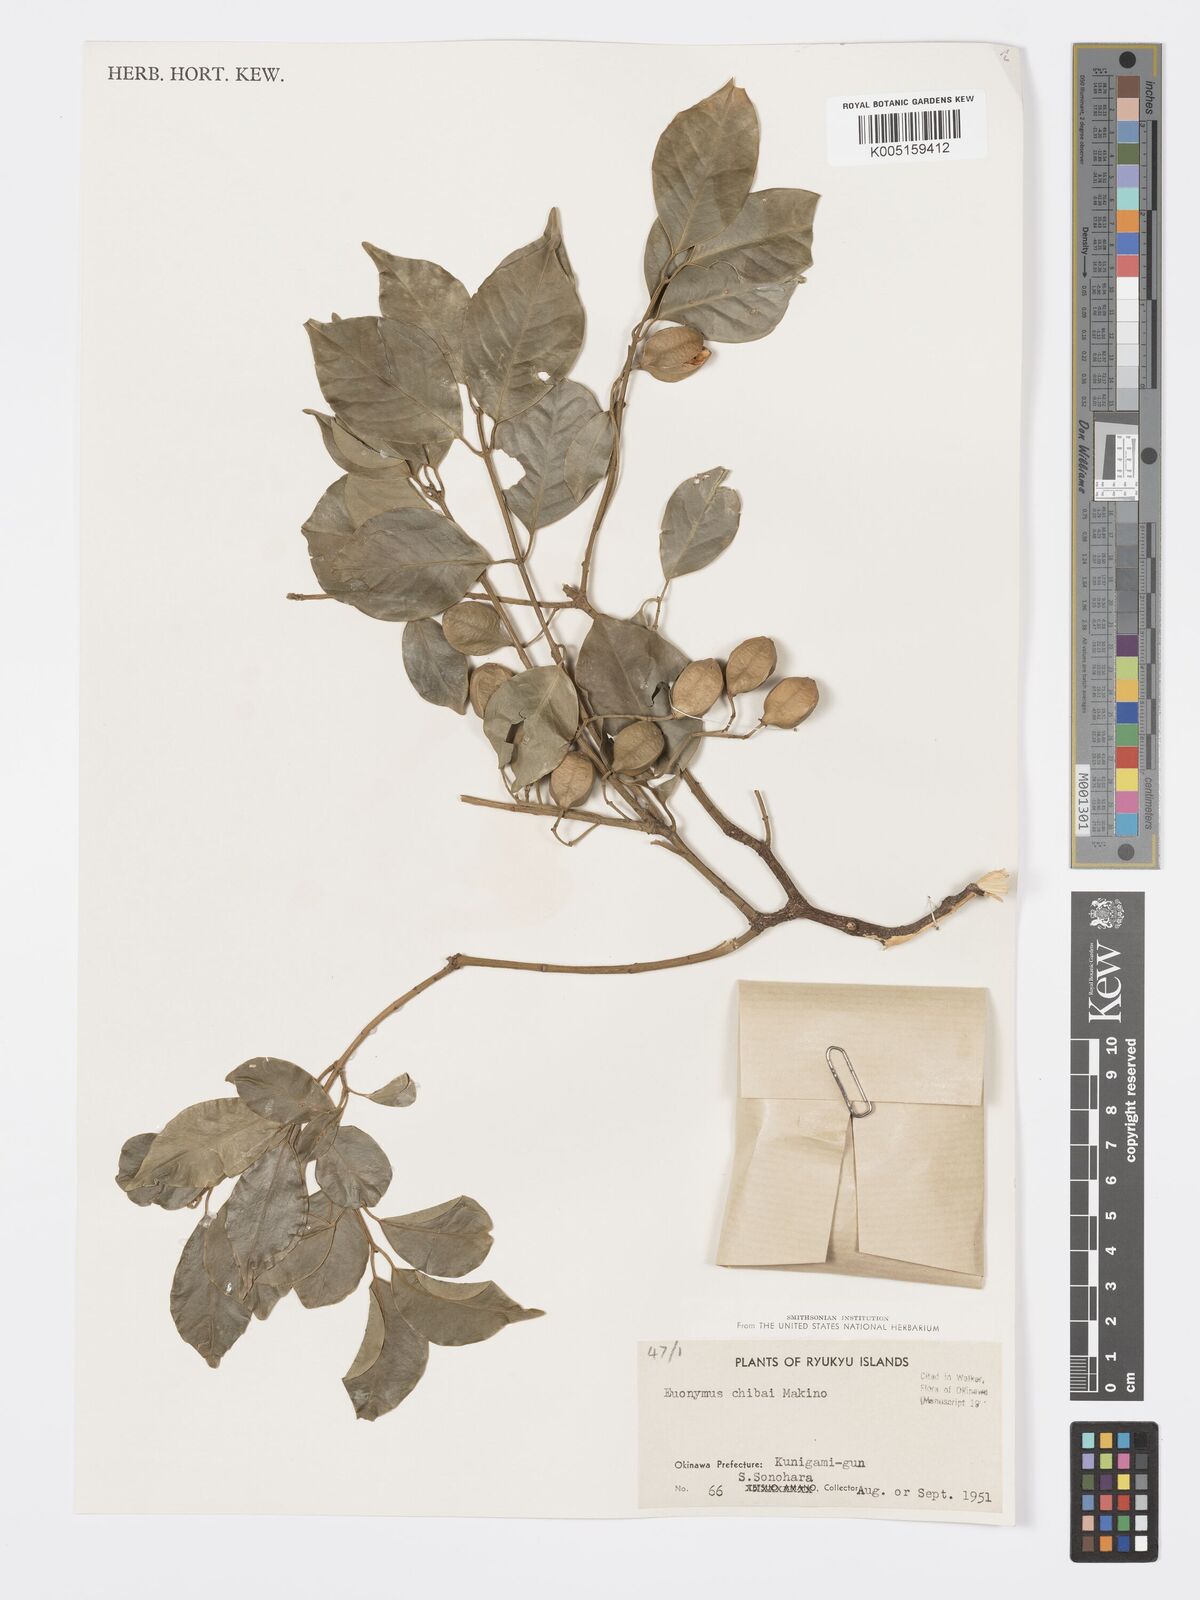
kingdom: Plantae
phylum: Tracheophyta
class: Magnoliopsida
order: Celastrales
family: Celastraceae
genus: Euonymus
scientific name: Euonymus chibae
